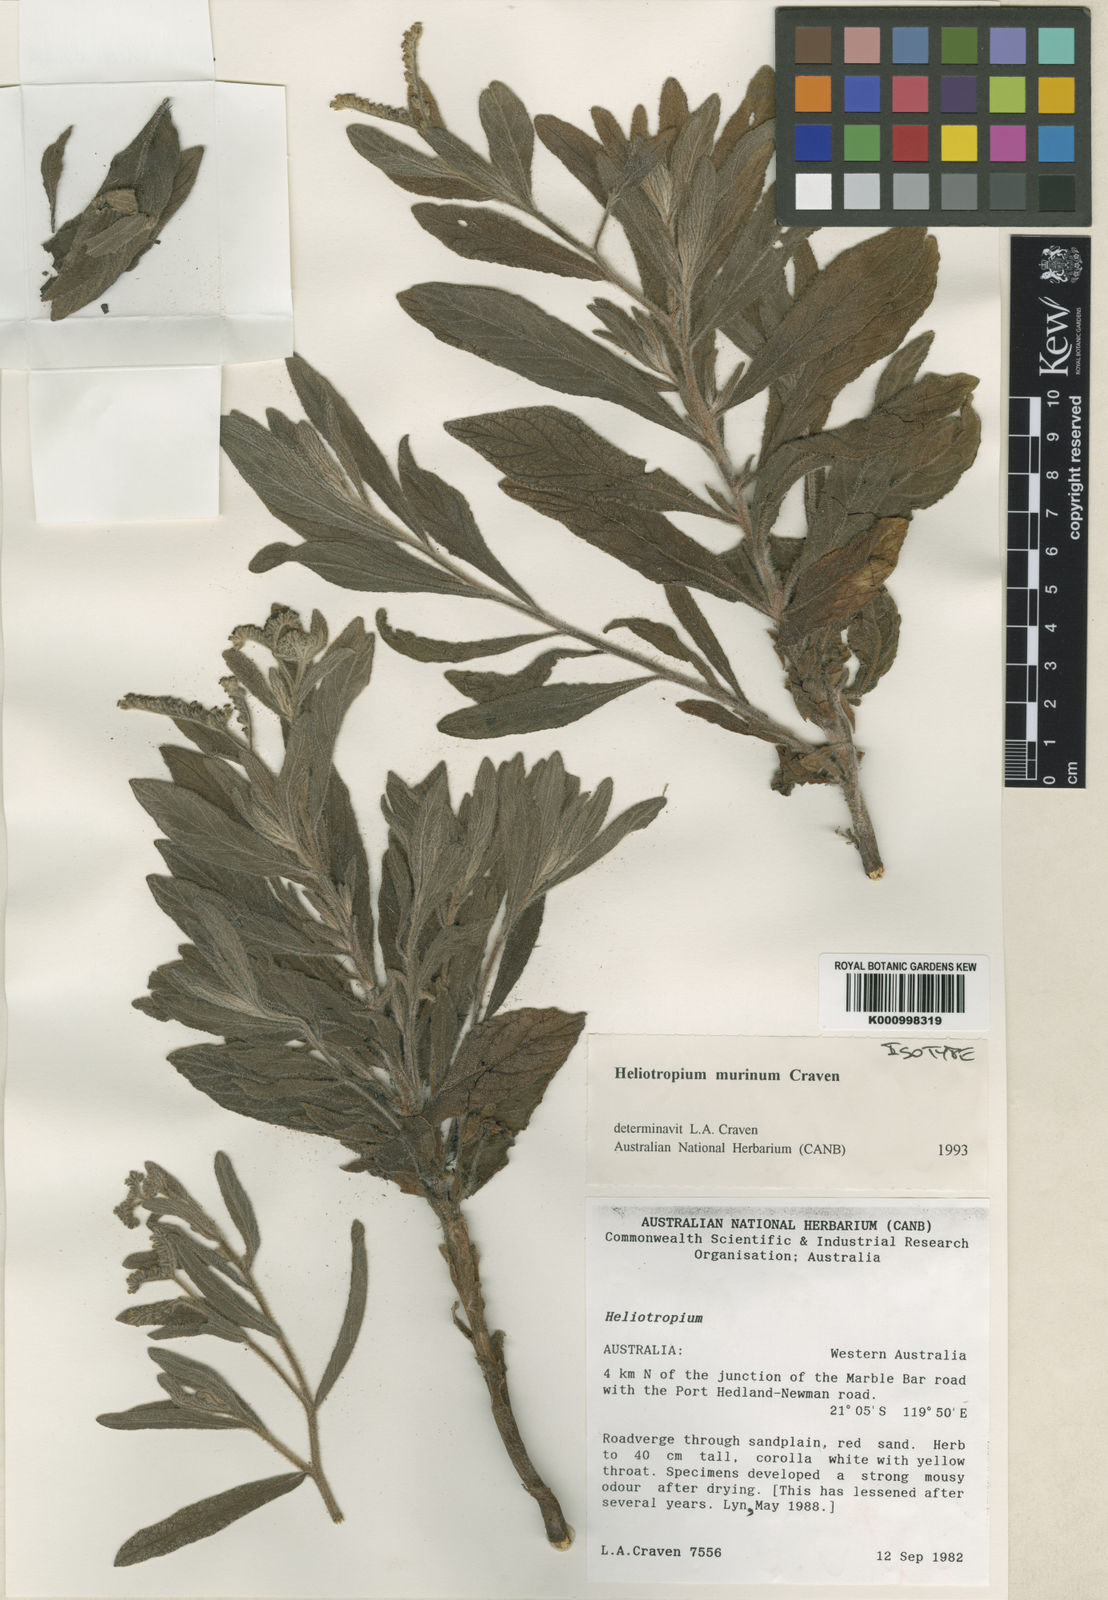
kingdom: Plantae
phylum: Tracheophyta
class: Magnoliopsida
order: Boraginales
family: Heliotropiaceae
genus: Heliotropium
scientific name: Heliotropium murinum
